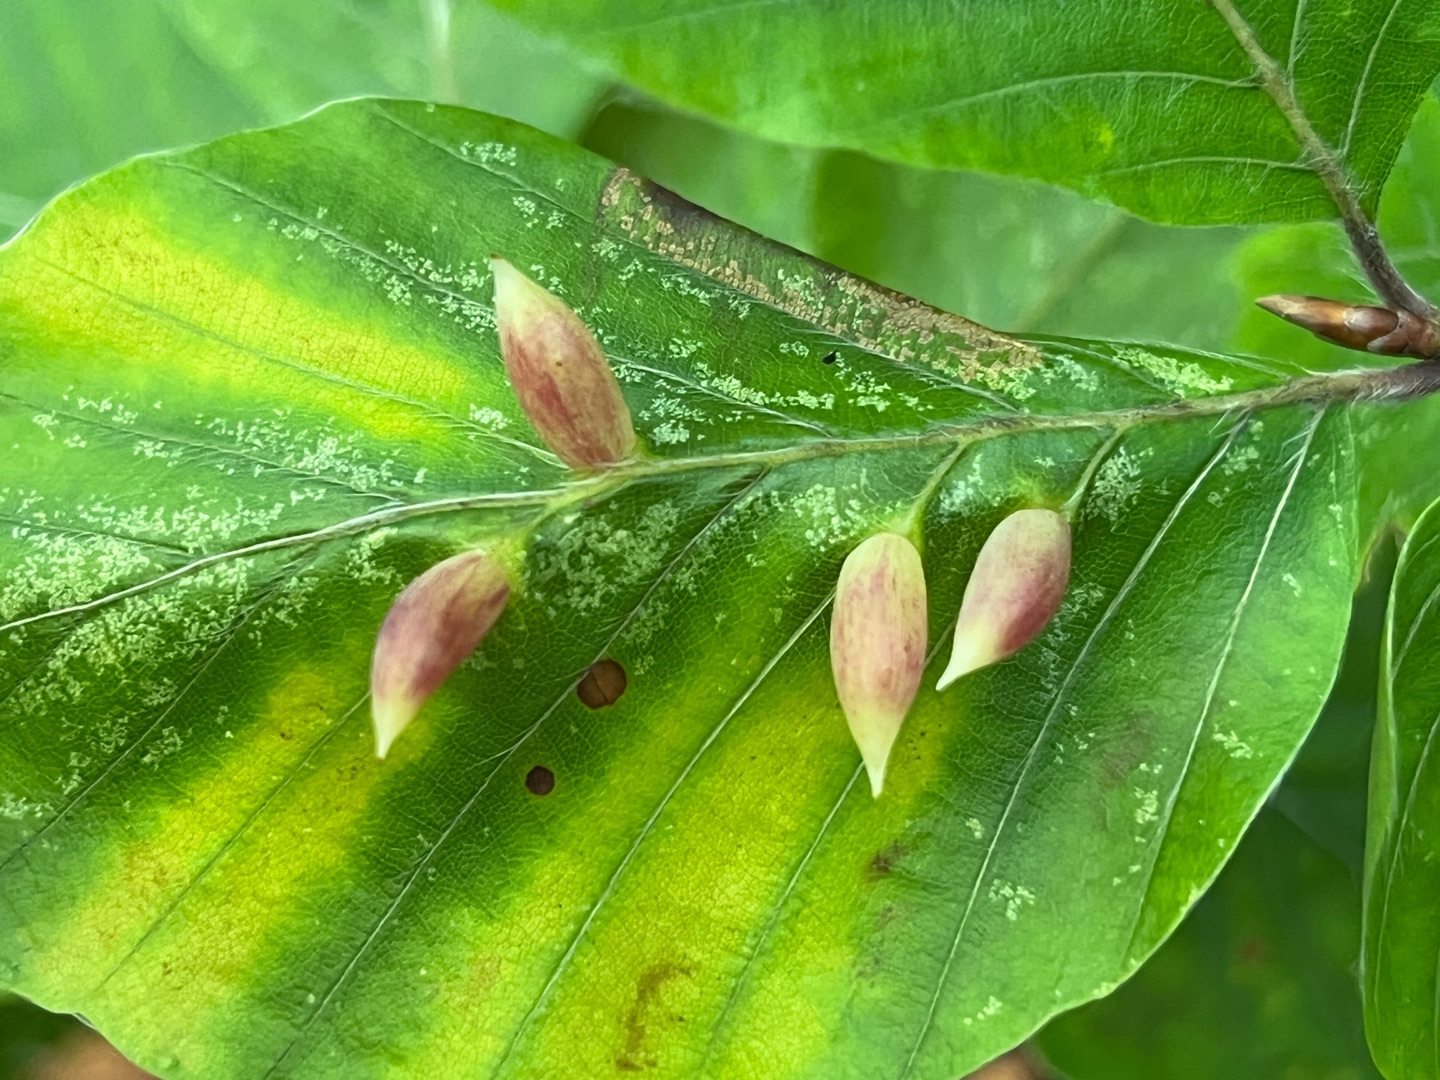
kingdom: Animalia
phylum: Arthropoda
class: Insecta
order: Diptera
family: Cecidomyiidae
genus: Mikiola
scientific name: Mikiola fagi
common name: Bøgegalmyg
